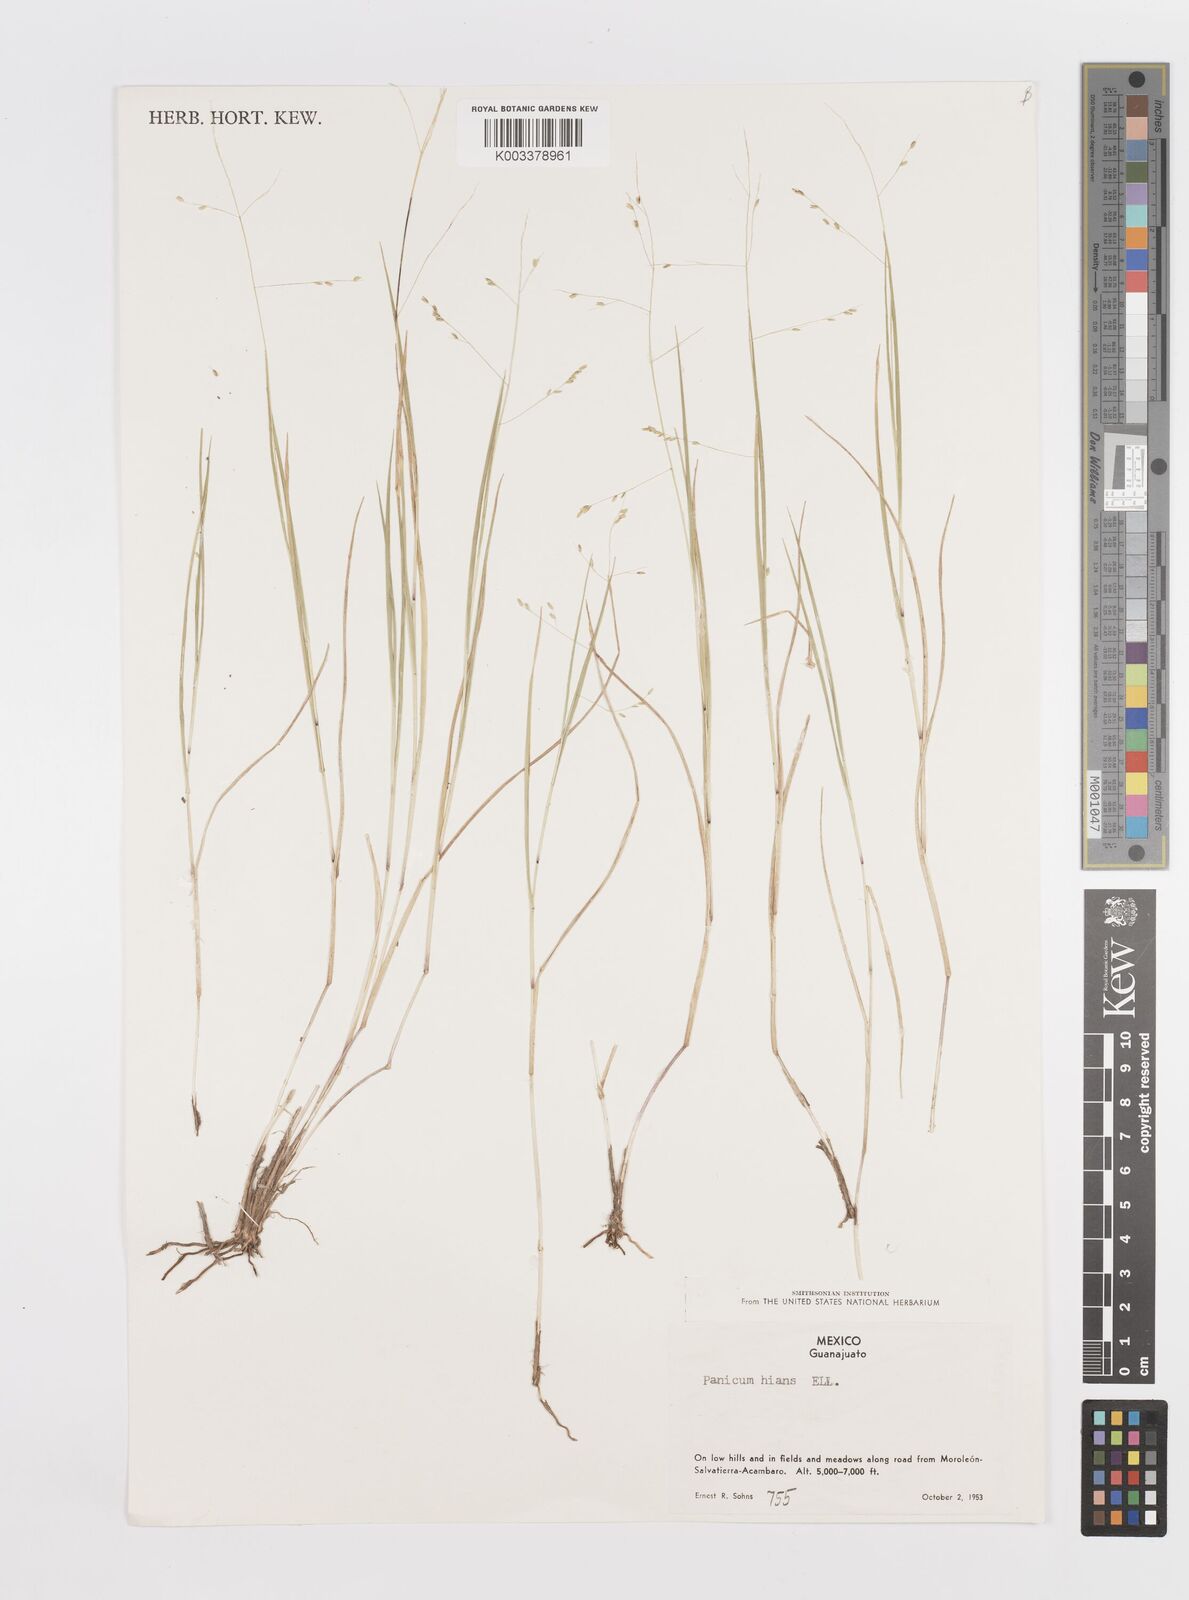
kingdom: Plantae
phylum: Tracheophyta
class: Liliopsida
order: Poales
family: Poaceae
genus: Steinchisma
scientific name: Steinchisma hians
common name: Gaping panic grass
